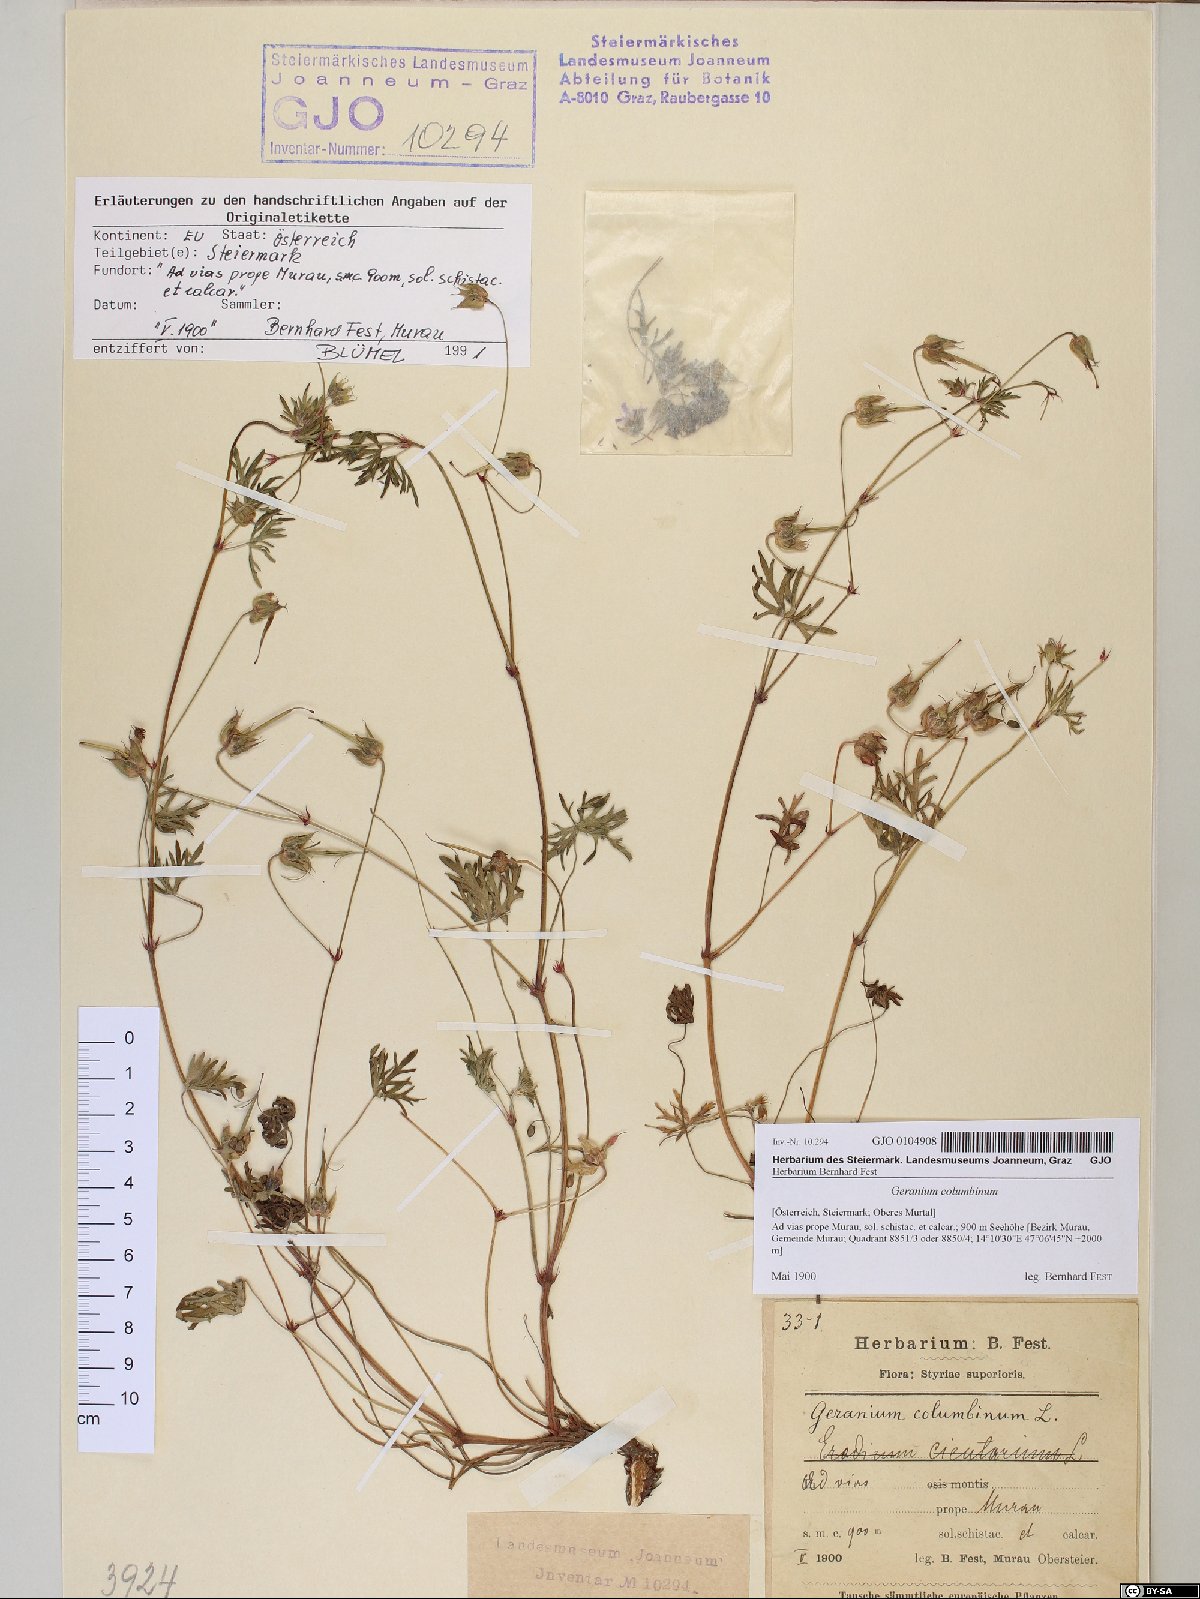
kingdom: Plantae
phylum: Tracheophyta
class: Magnoliopsida
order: Geraniales
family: Geraniaceae
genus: Geranium
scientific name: Geranium columbinum
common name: Long-stalked crane's-bill
